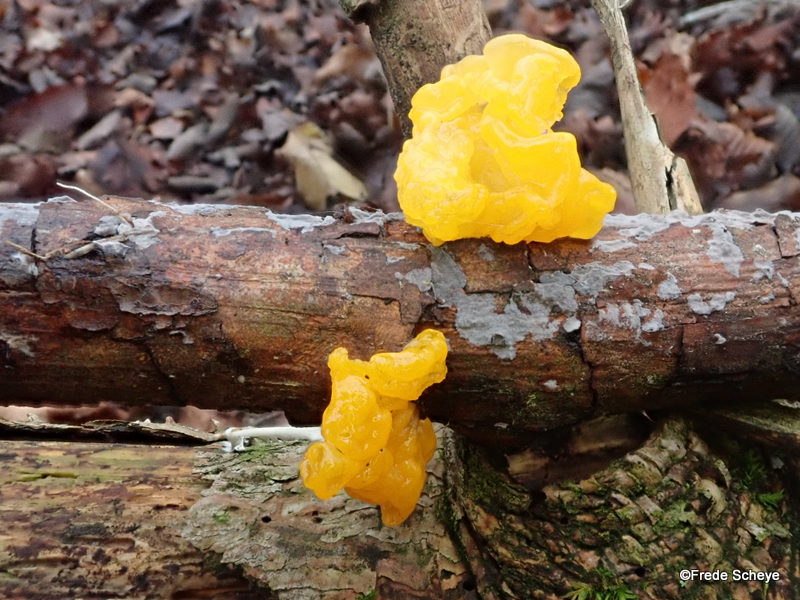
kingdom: Fungi
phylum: Basidiomycota
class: Tremellomycetes
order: Tremellales
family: Tremellaceae
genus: Tremella
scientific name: Tremella mesenterica
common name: gul bævresvamp
